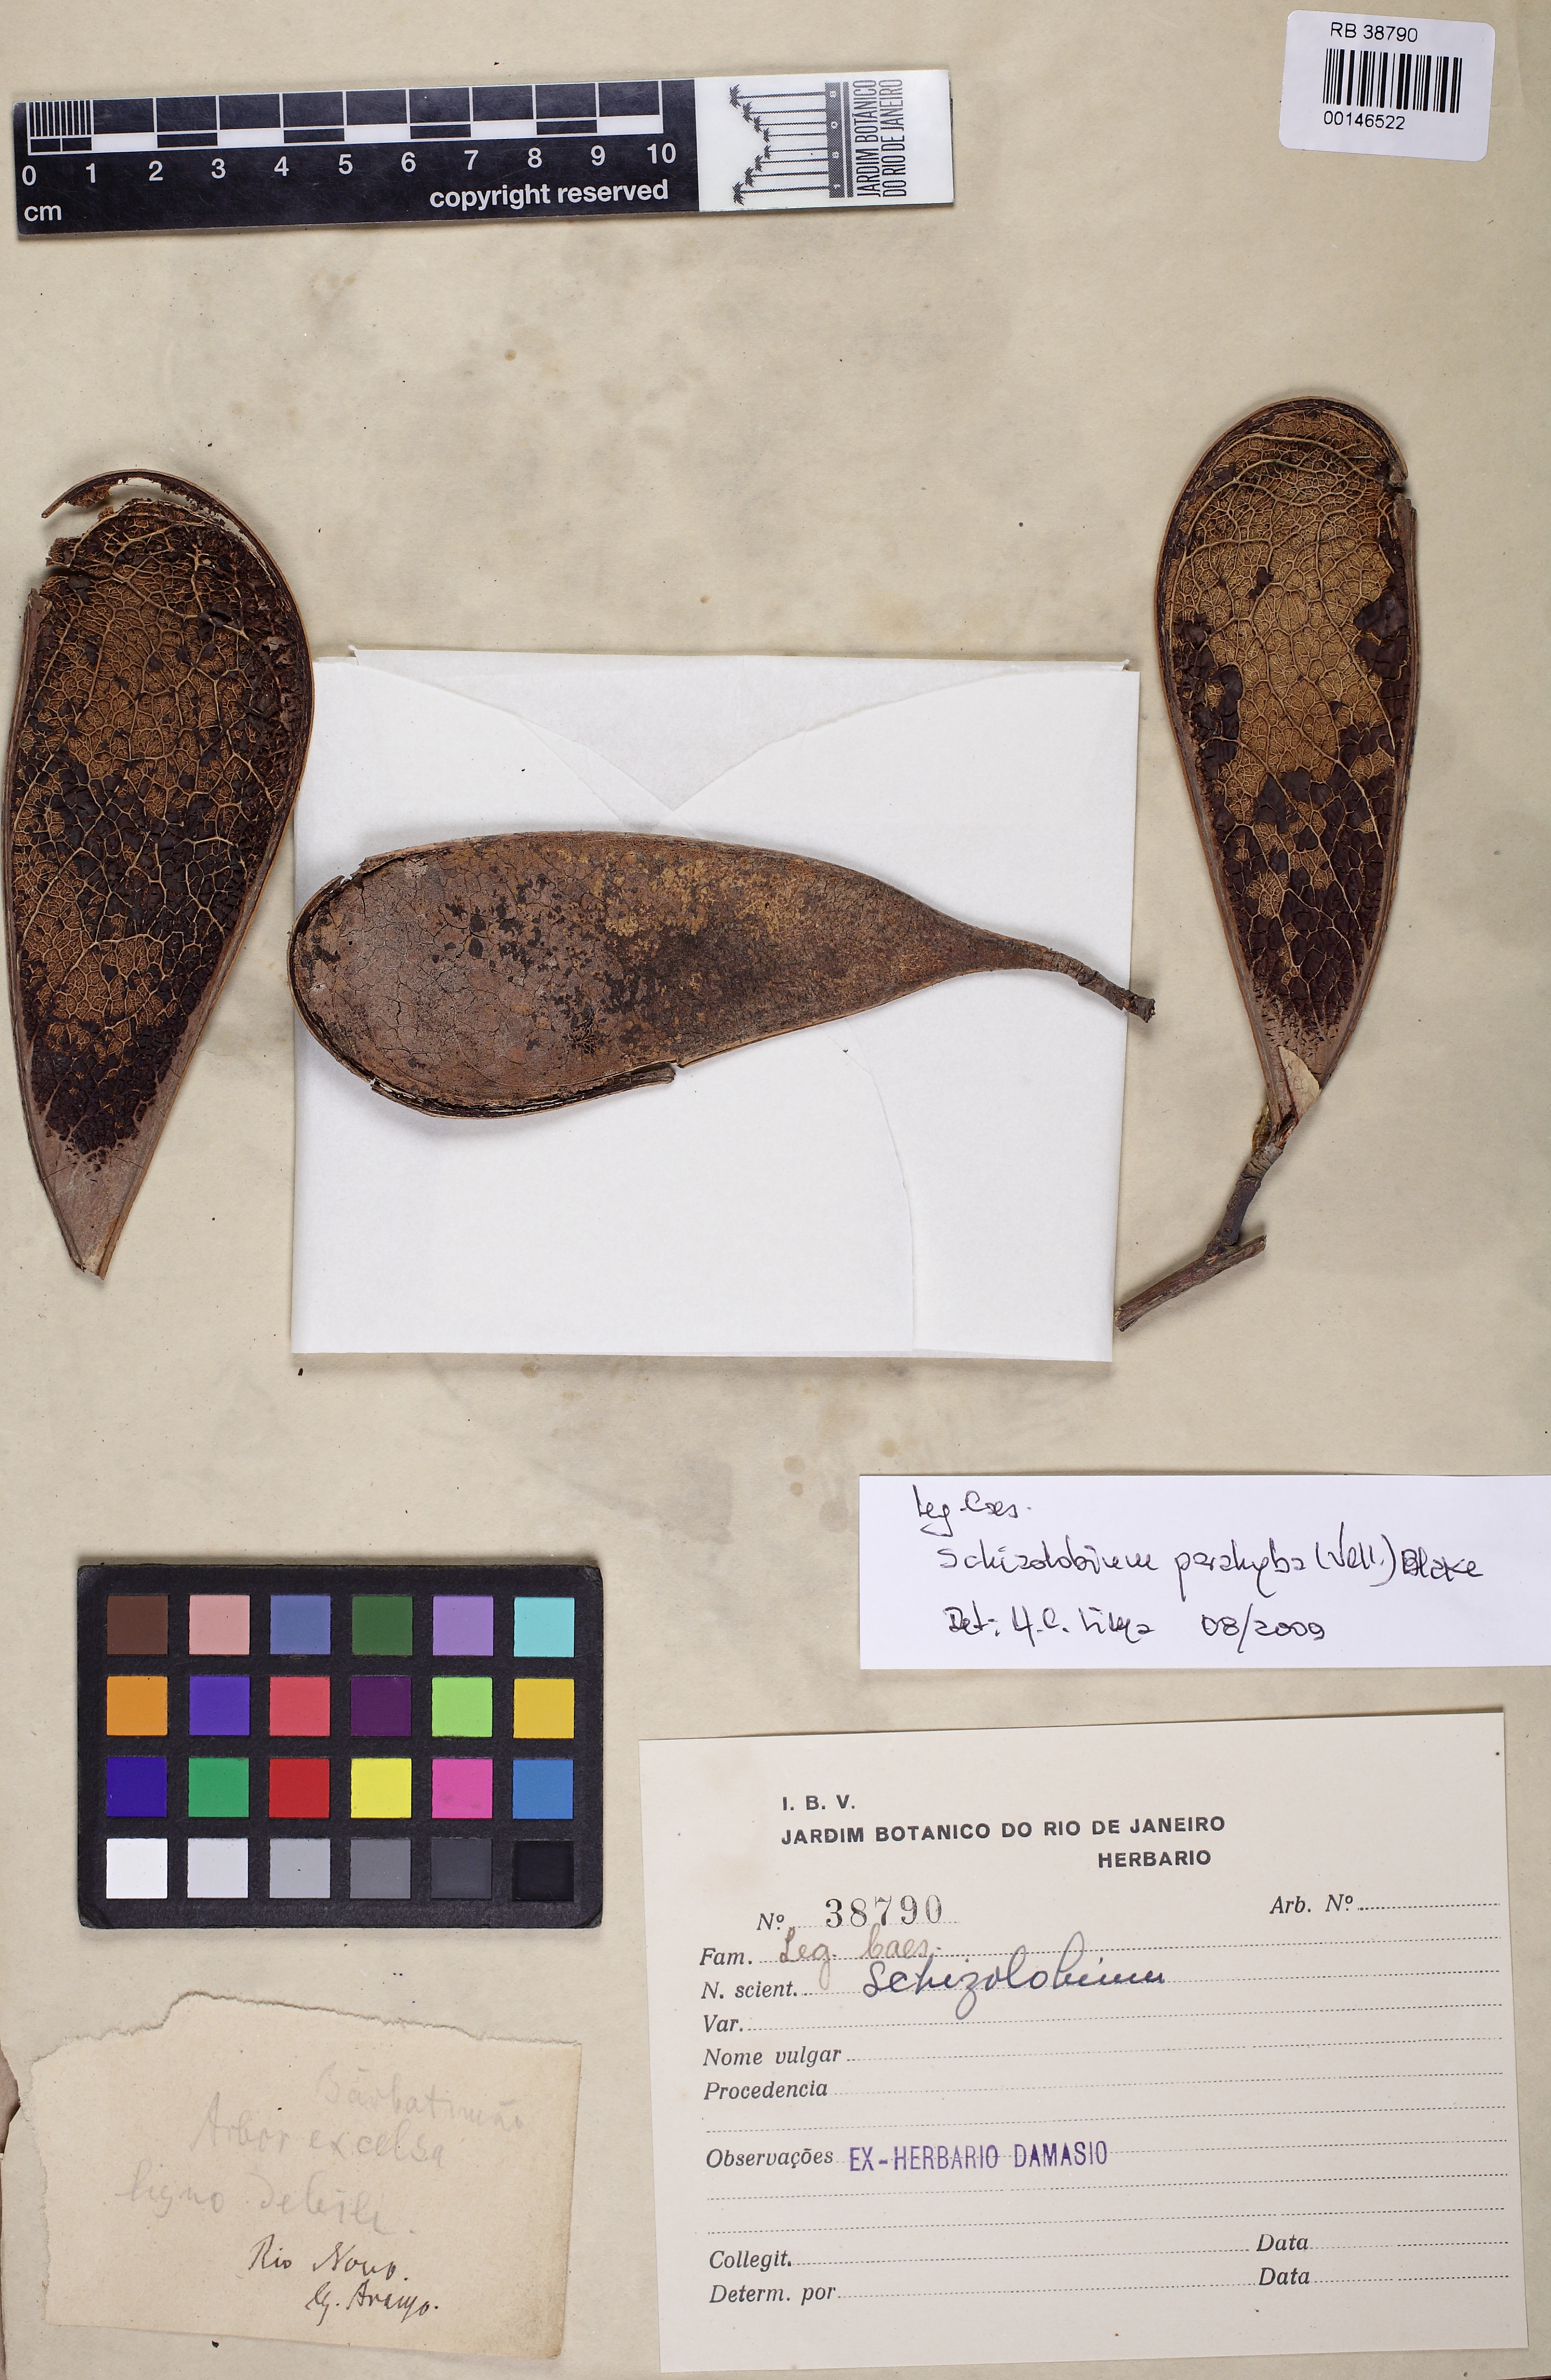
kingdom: Plantae
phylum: Tracheophyta
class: Magnoliopsida
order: Fabales
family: Fabaceae
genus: Schizolobium
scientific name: Schizolobium
